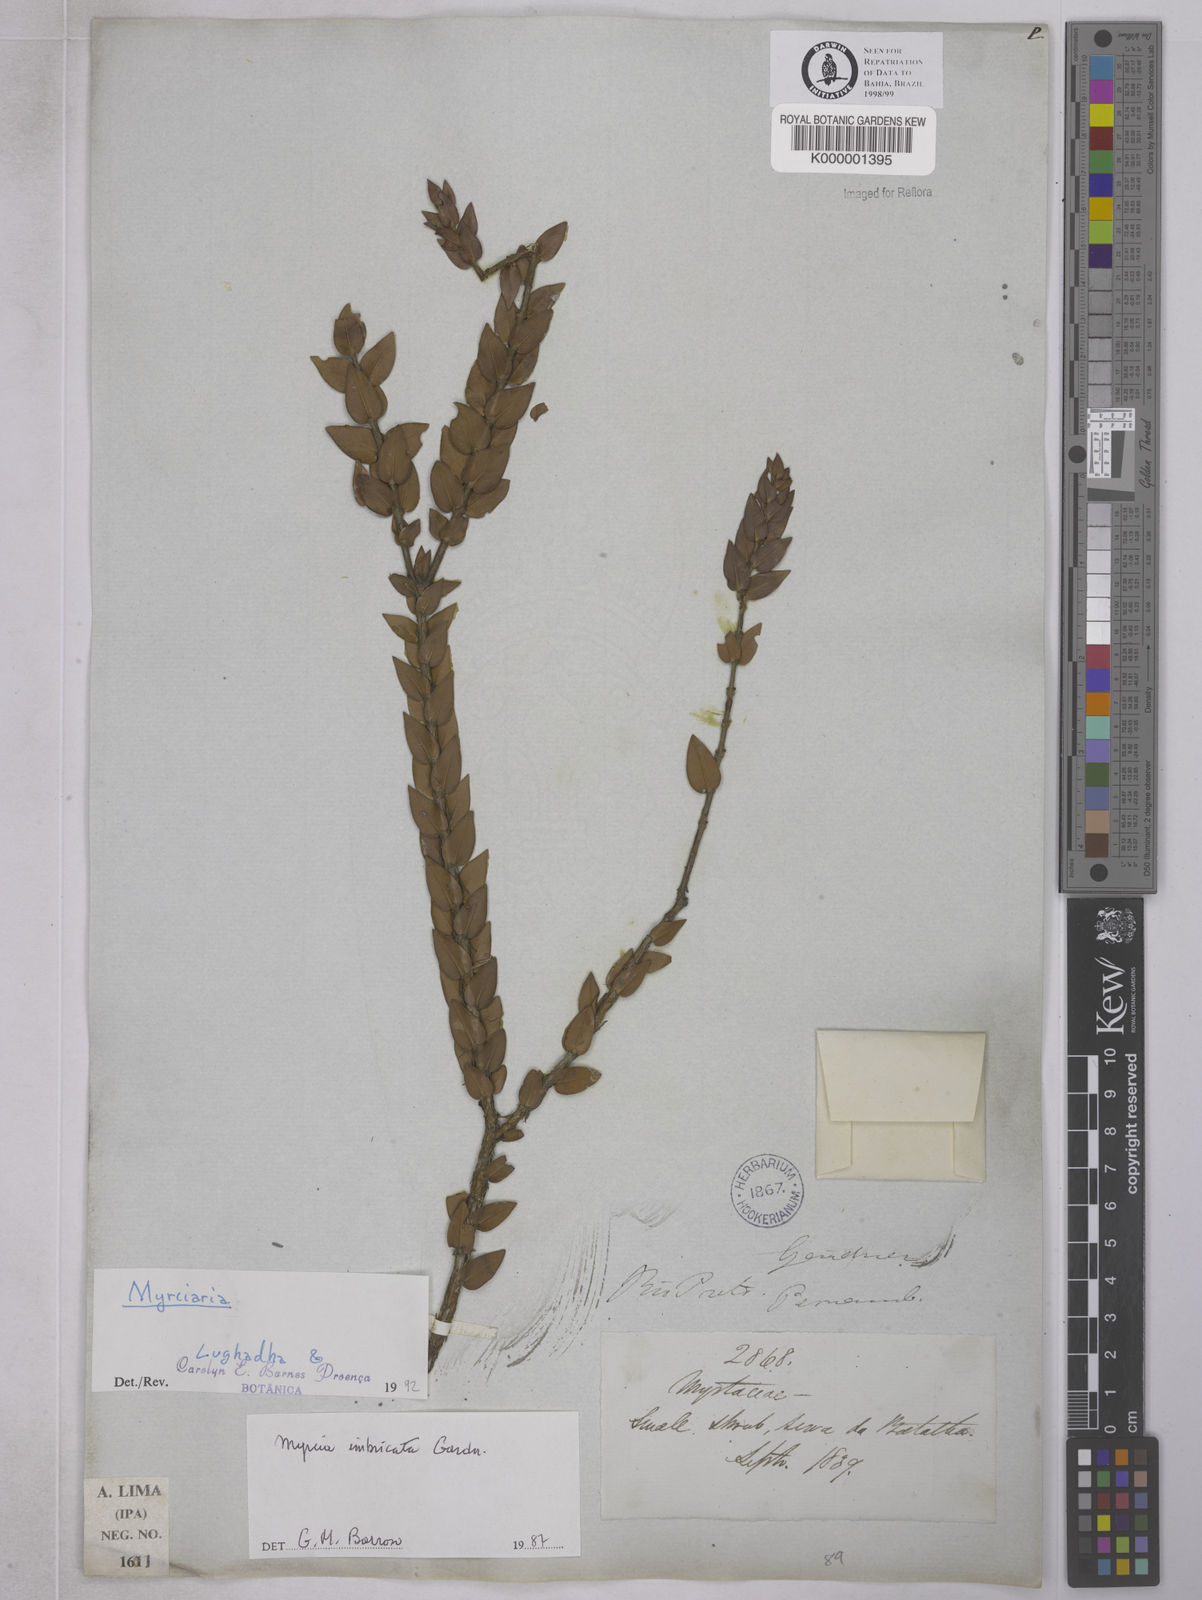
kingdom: Plantae
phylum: Tracheophyta
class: Magnoliopsida
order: Myrtales
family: Myrtaceae
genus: Myrciaria
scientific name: Myrciaria
